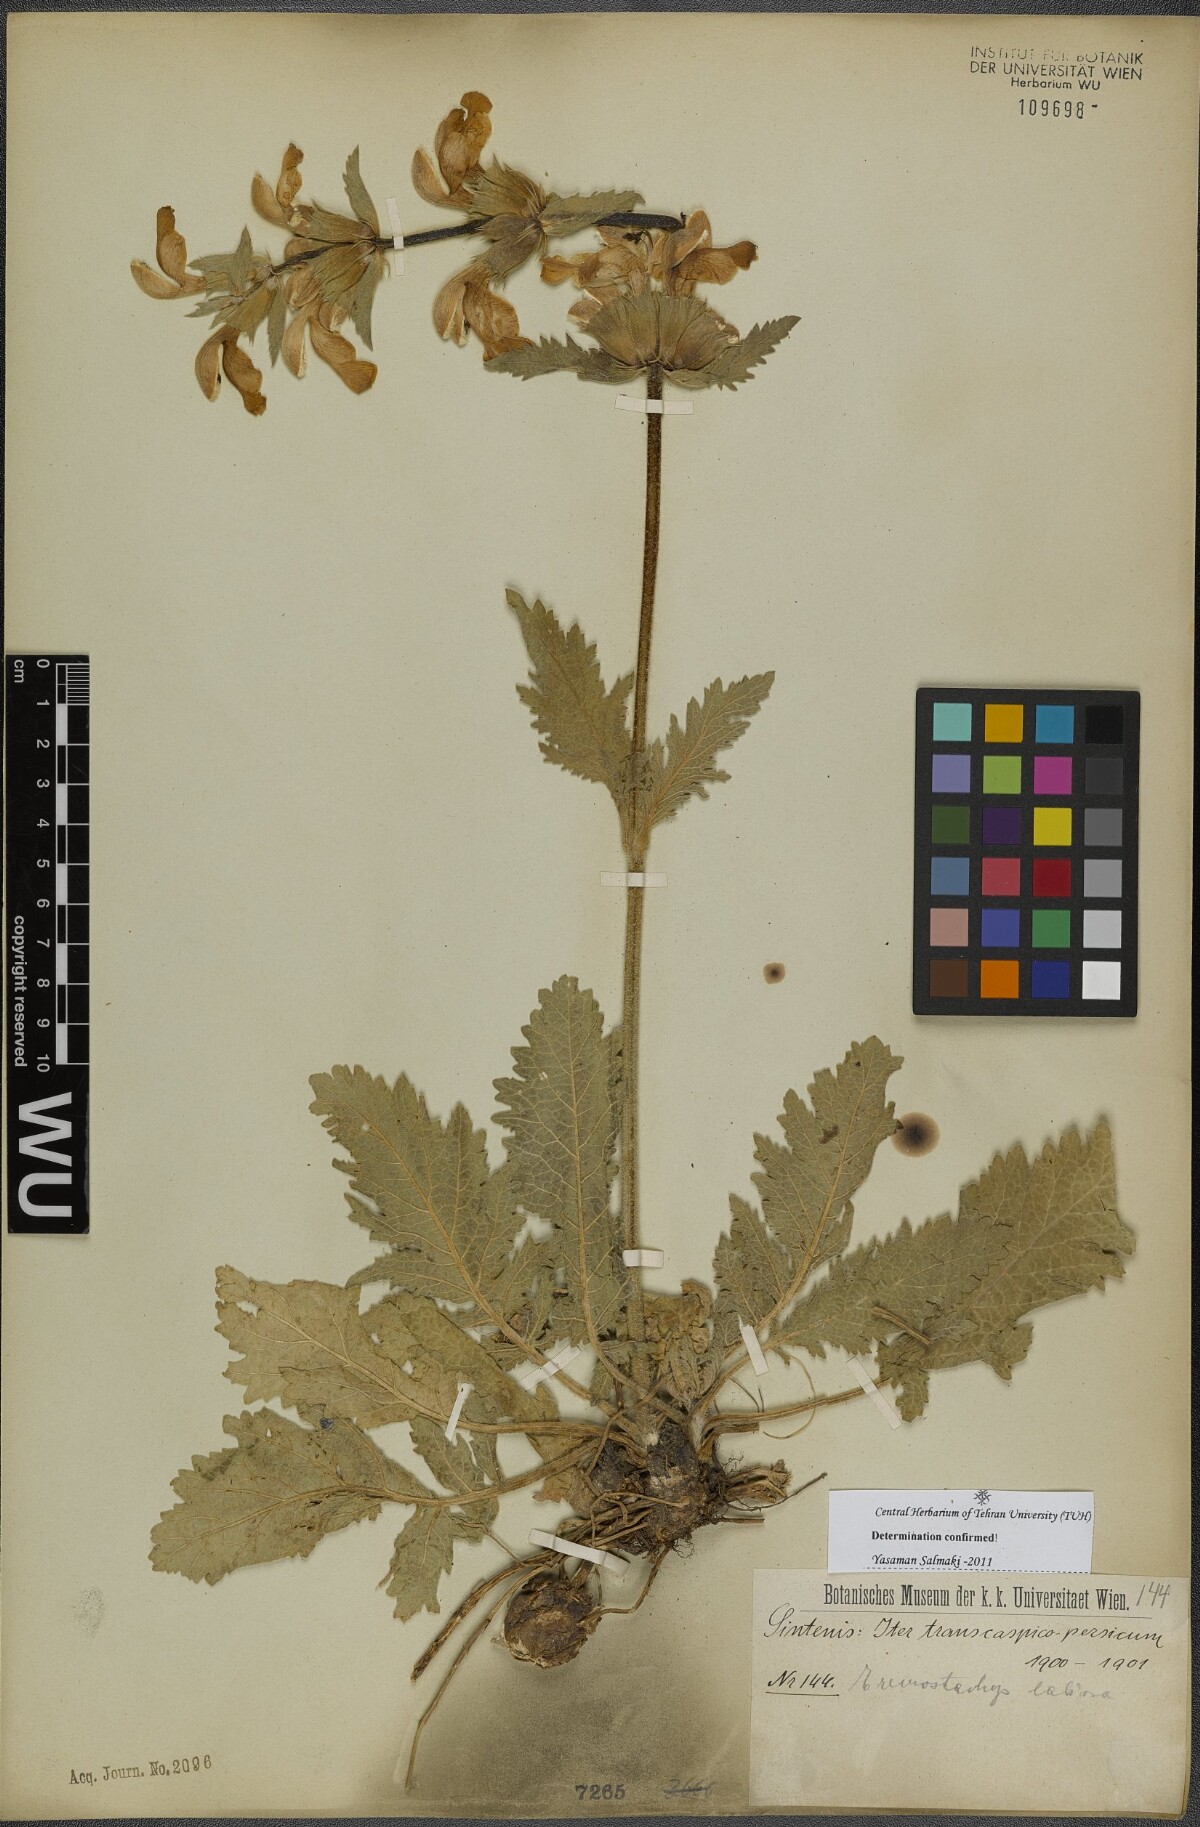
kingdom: Plantae
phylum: Tracheophyta
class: Magnoliopsida
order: Lamiales
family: Lamiaceae
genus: Phlomoides
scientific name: Phlomoides labiosa
